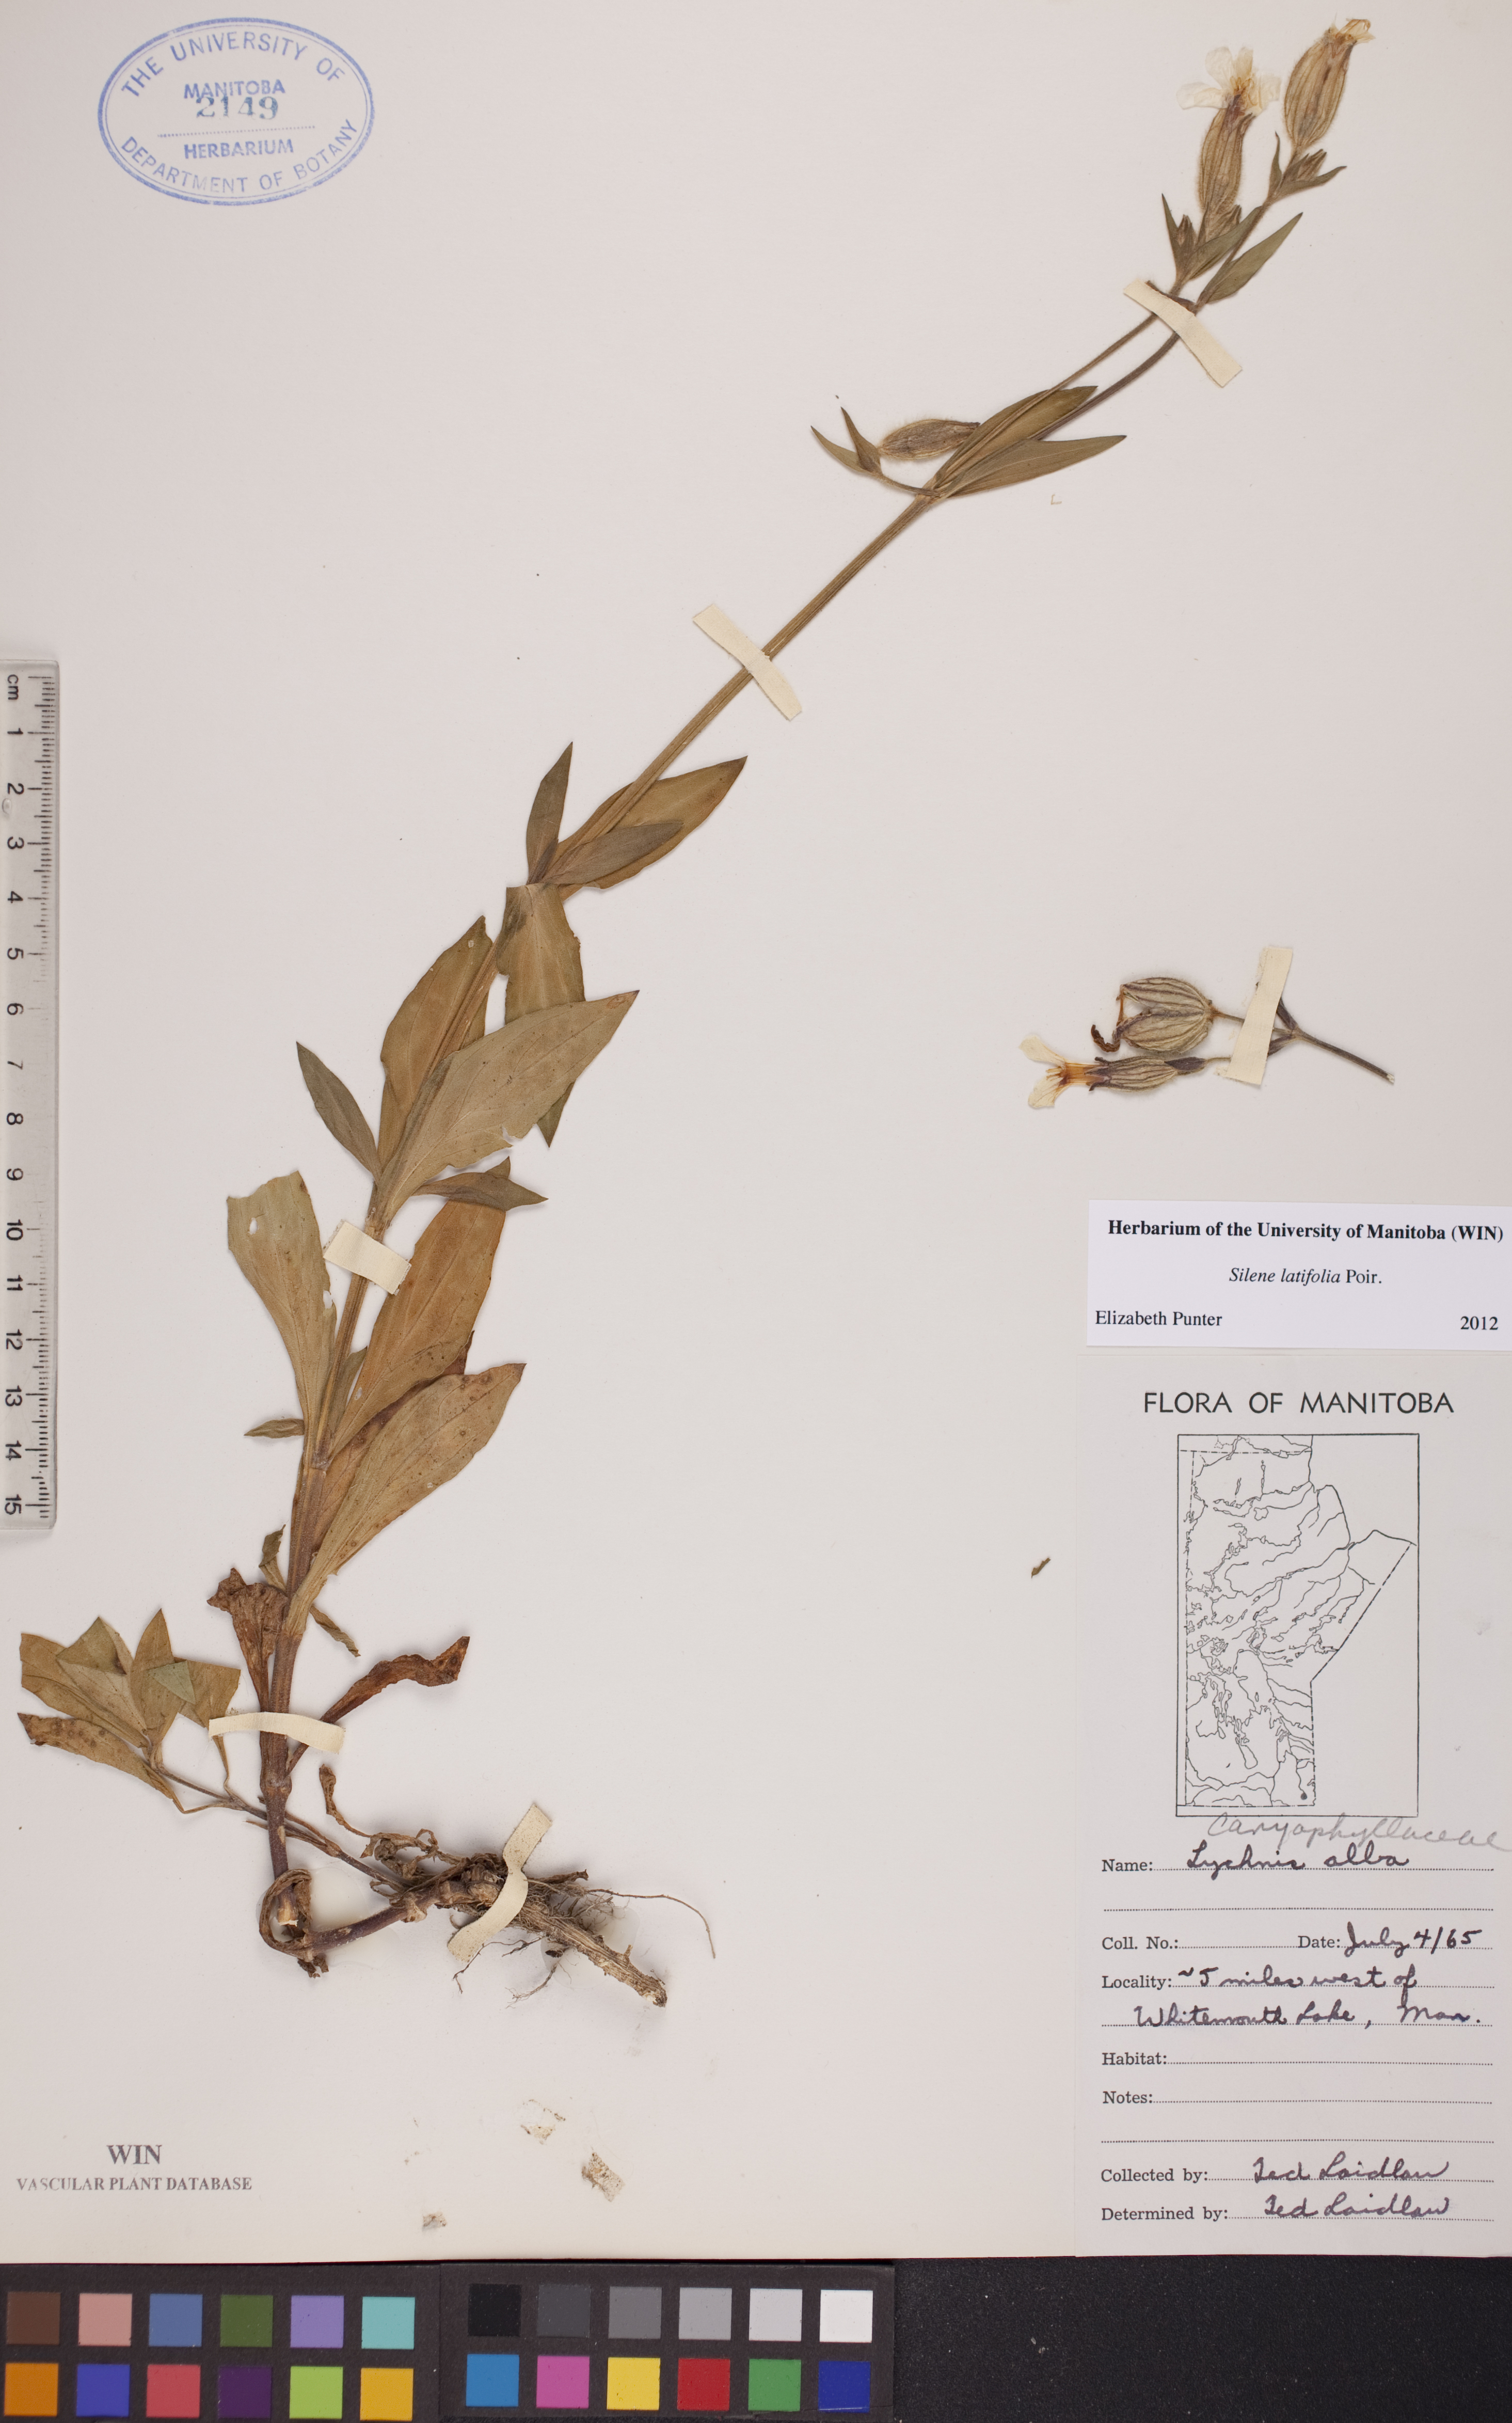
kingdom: Plantae
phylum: Tracheophyta
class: Magnoliopsida
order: Caryophyllales
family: Caryophyllaceae
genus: Silene
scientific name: Silene latifolia
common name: White campion
